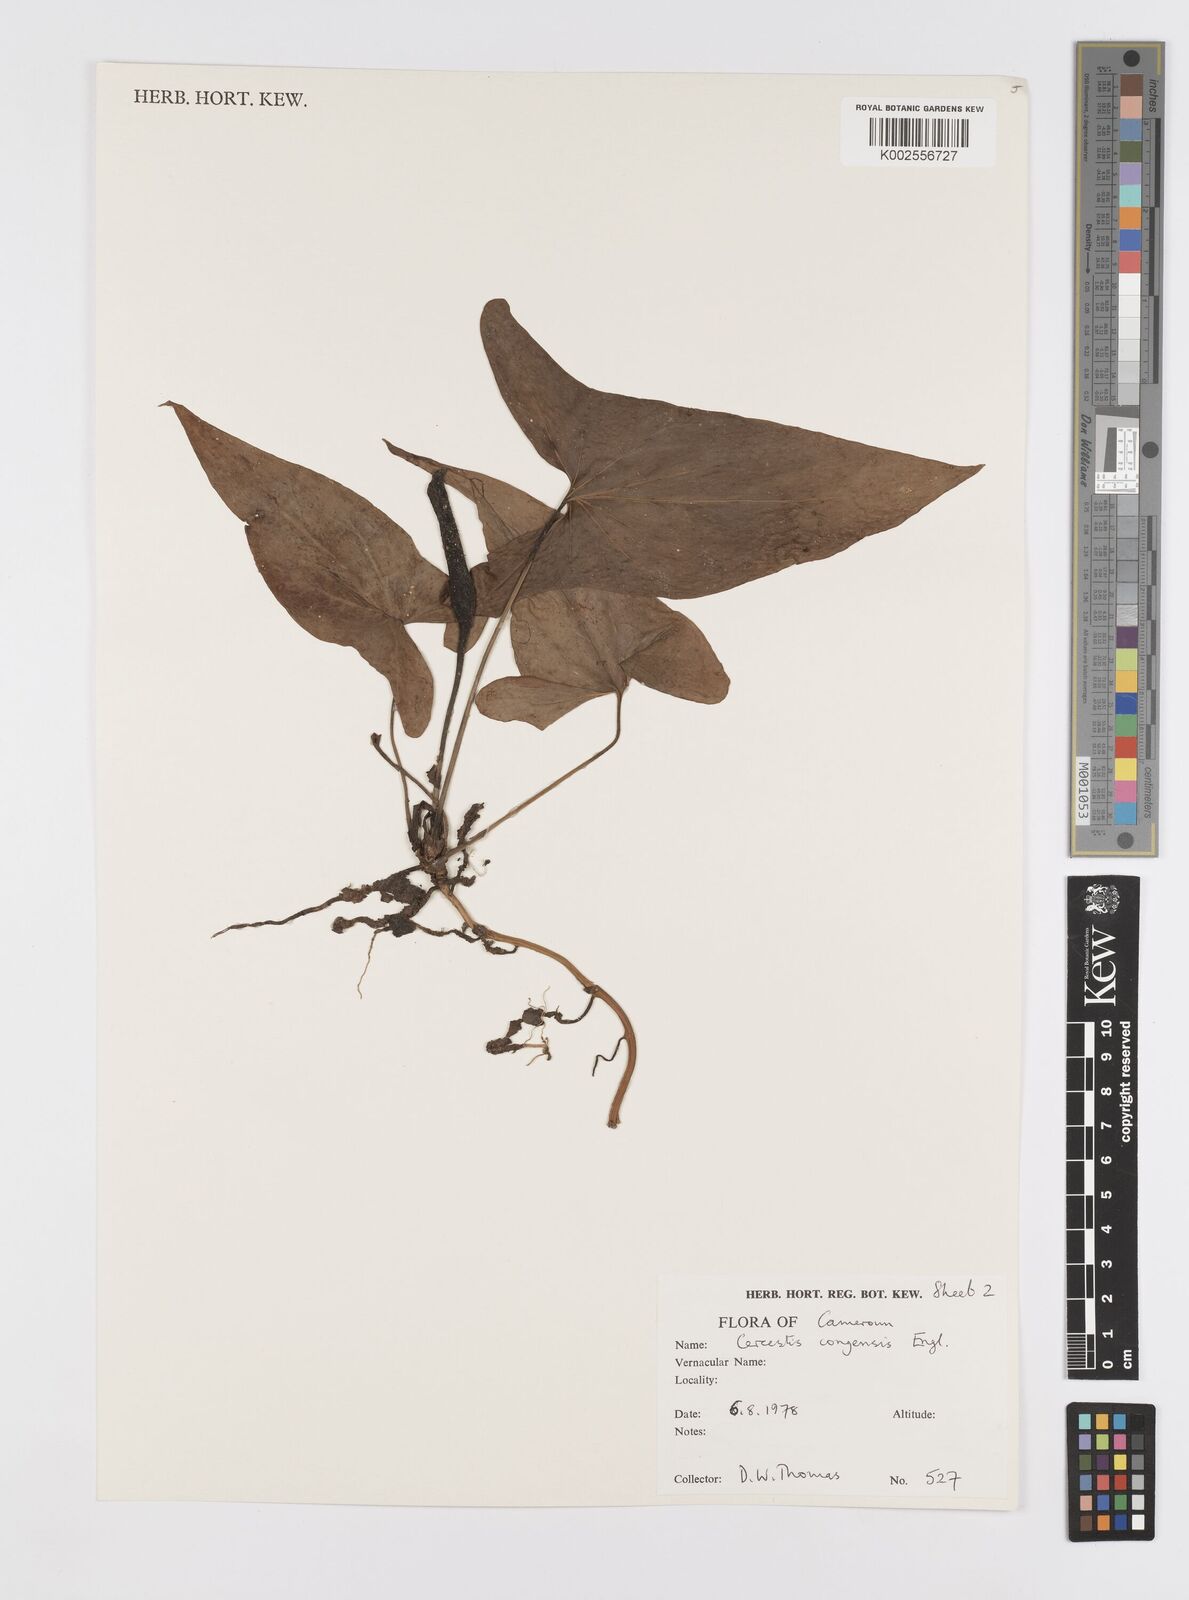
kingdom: Plantae
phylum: Tracheophyta
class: Liliopsida
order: Alismatales
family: Araceae
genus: Cercestis
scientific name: Cercestis congoensis
